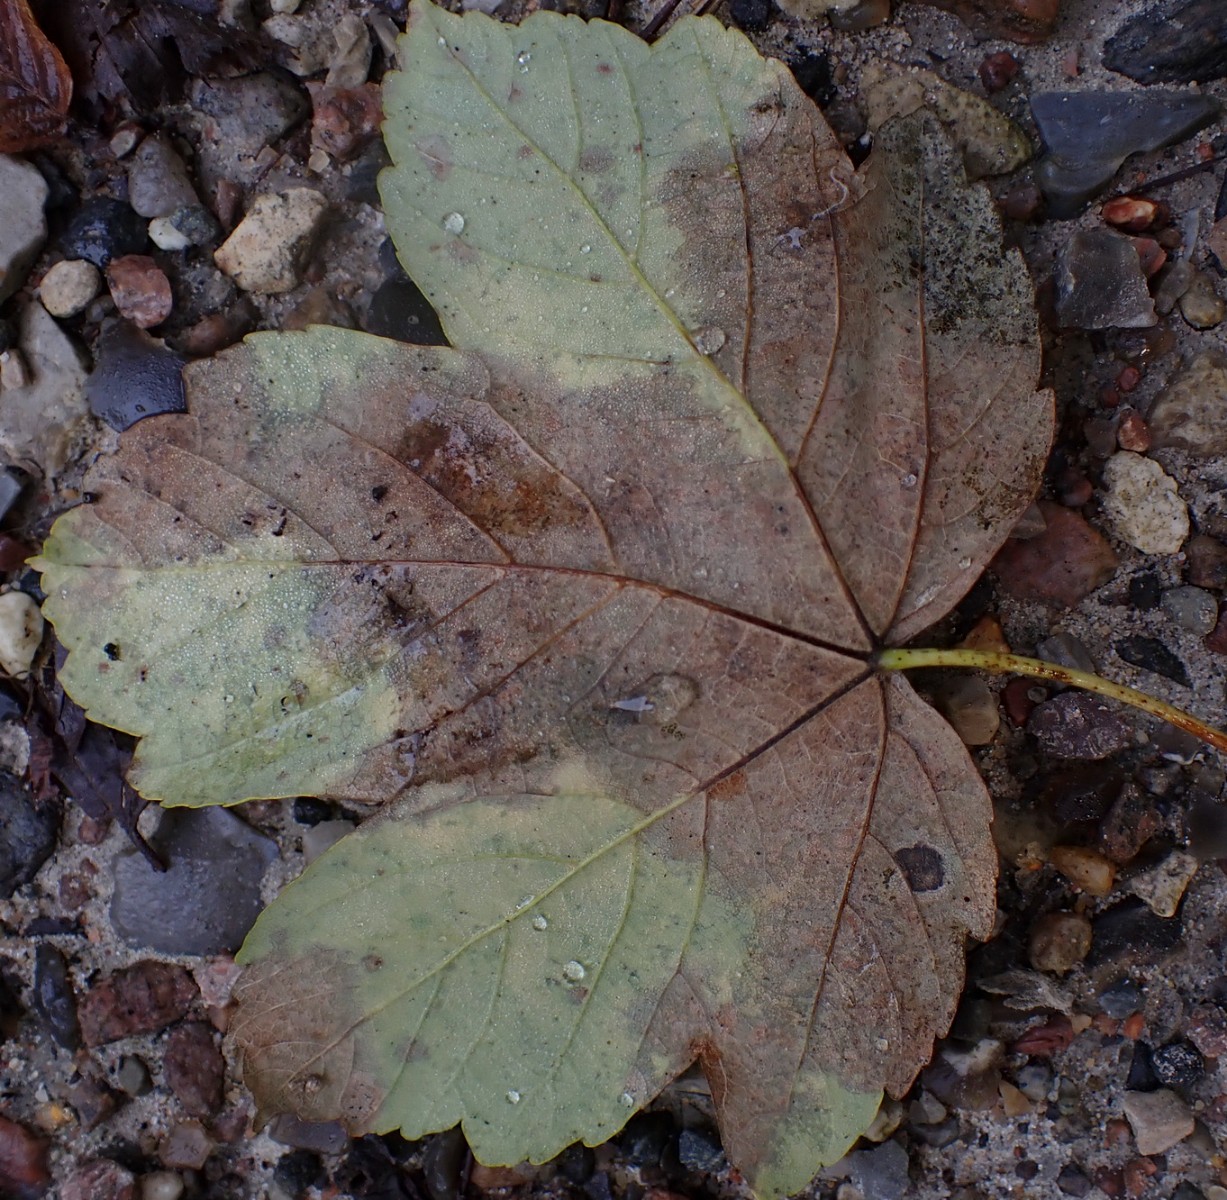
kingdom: Fungi
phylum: Ascomycota
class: Sordariomycetes
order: Diaporthales
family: Gnomoniaceae
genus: Pleuroceras
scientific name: Pleuroceras pseudoplatani
